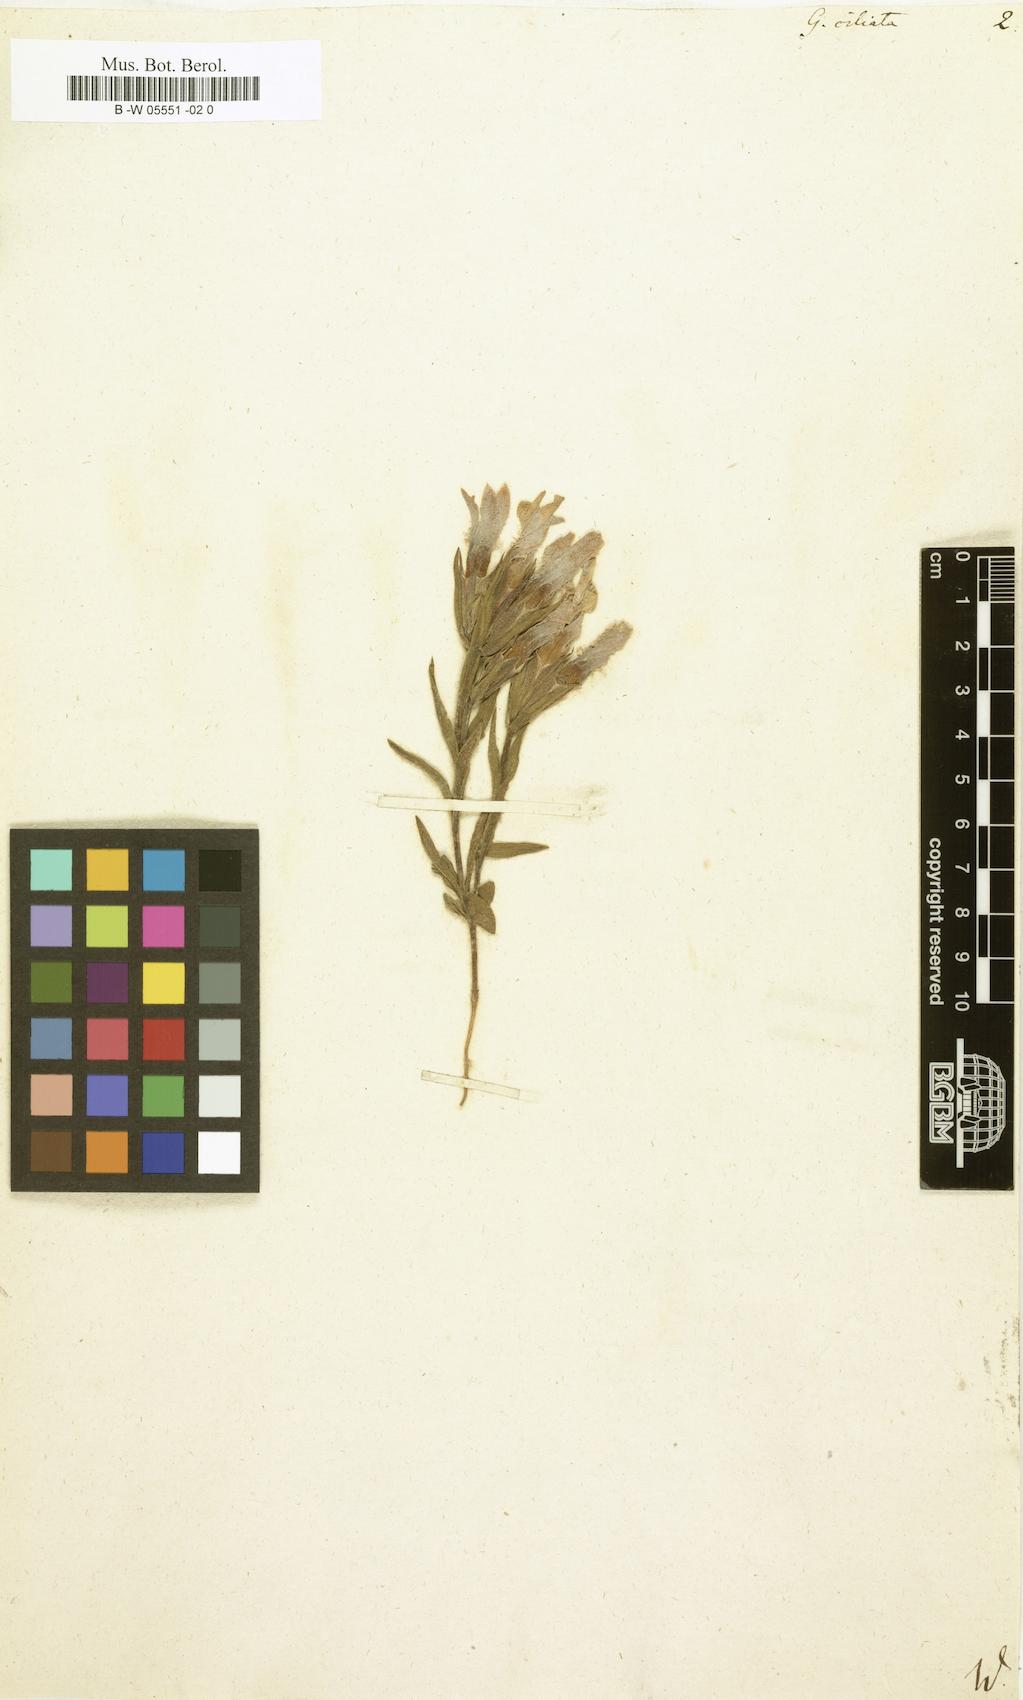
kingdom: Plantae
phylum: Tracheophyta
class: Magnoliopsida
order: Gentianales
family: Gentianaceae
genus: Gentianopsis
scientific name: Gentianopsis
